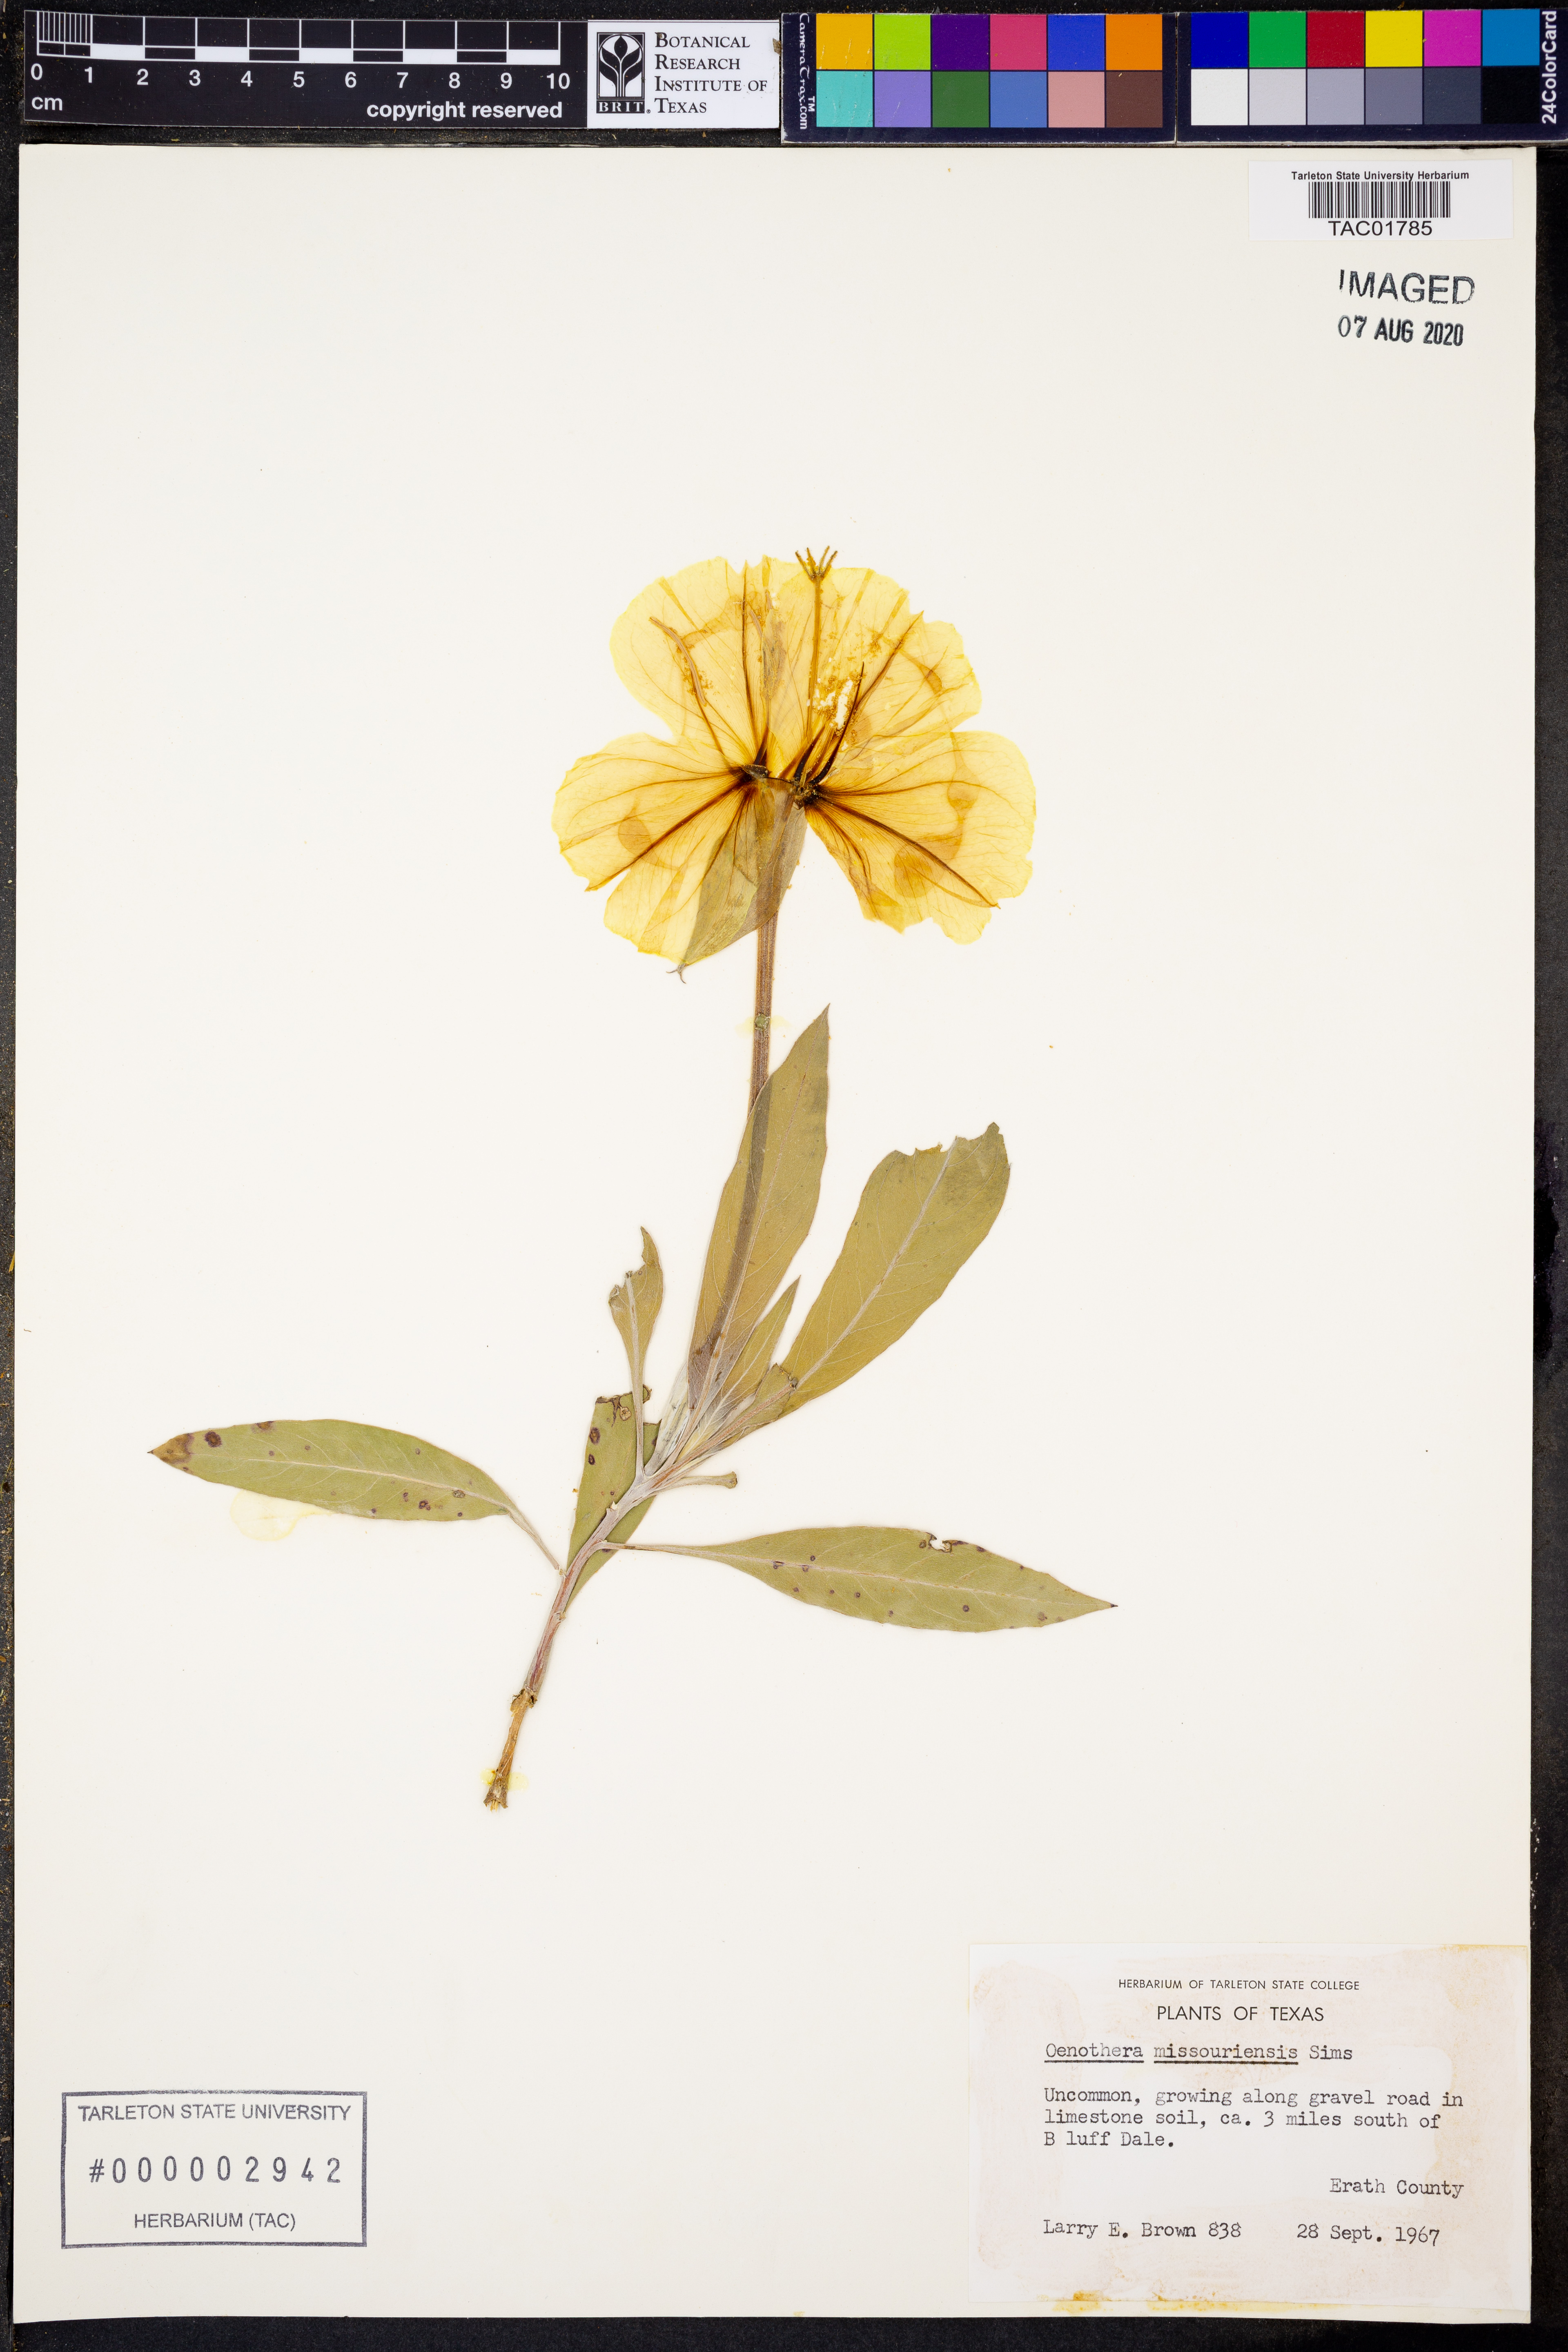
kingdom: Plantae
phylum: Tracheophyta
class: Magnoliopsida
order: Myrtales
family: Onagraceae
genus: Oenothera
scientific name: Oenothera macrocarpa
